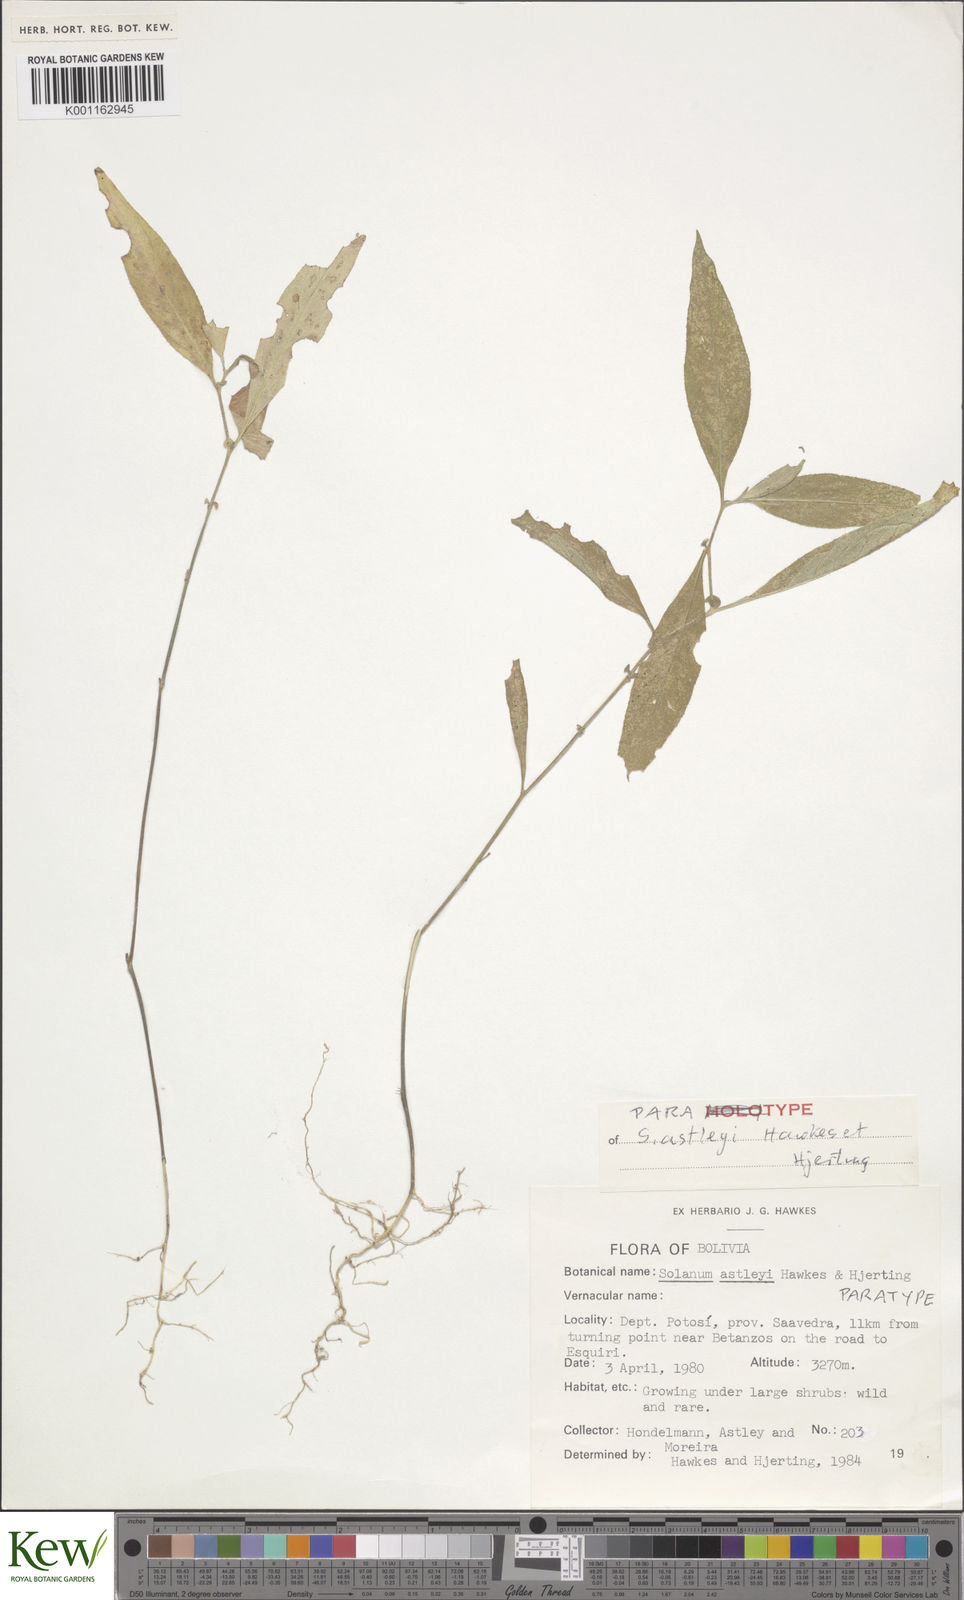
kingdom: Plantae
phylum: Tracheophyta
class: Magnoliopsida
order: Solanales
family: Solanaceae
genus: Solanum
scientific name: Solanum boliviense
